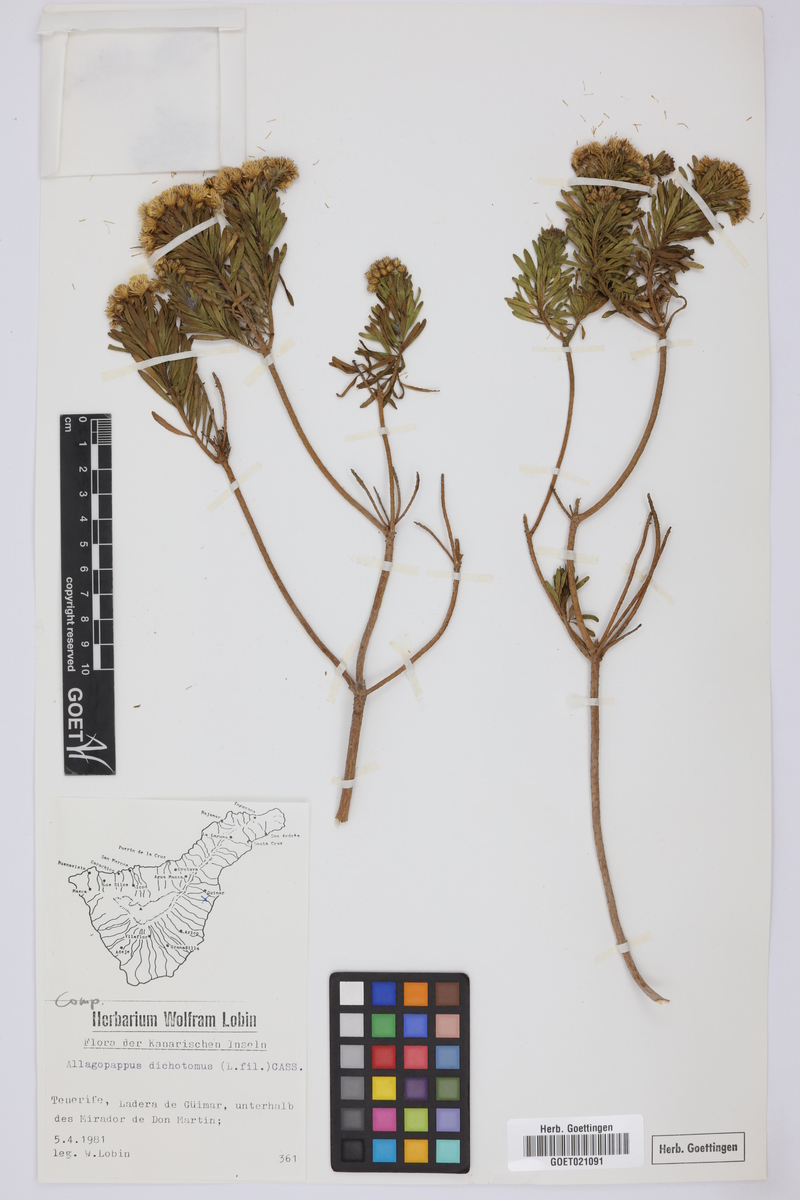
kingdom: Plantae
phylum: Tracheophyta
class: Magnoliopsida
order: Asterales
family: Asteraceae
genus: Allagopappus
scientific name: Allagopappus canariensis
